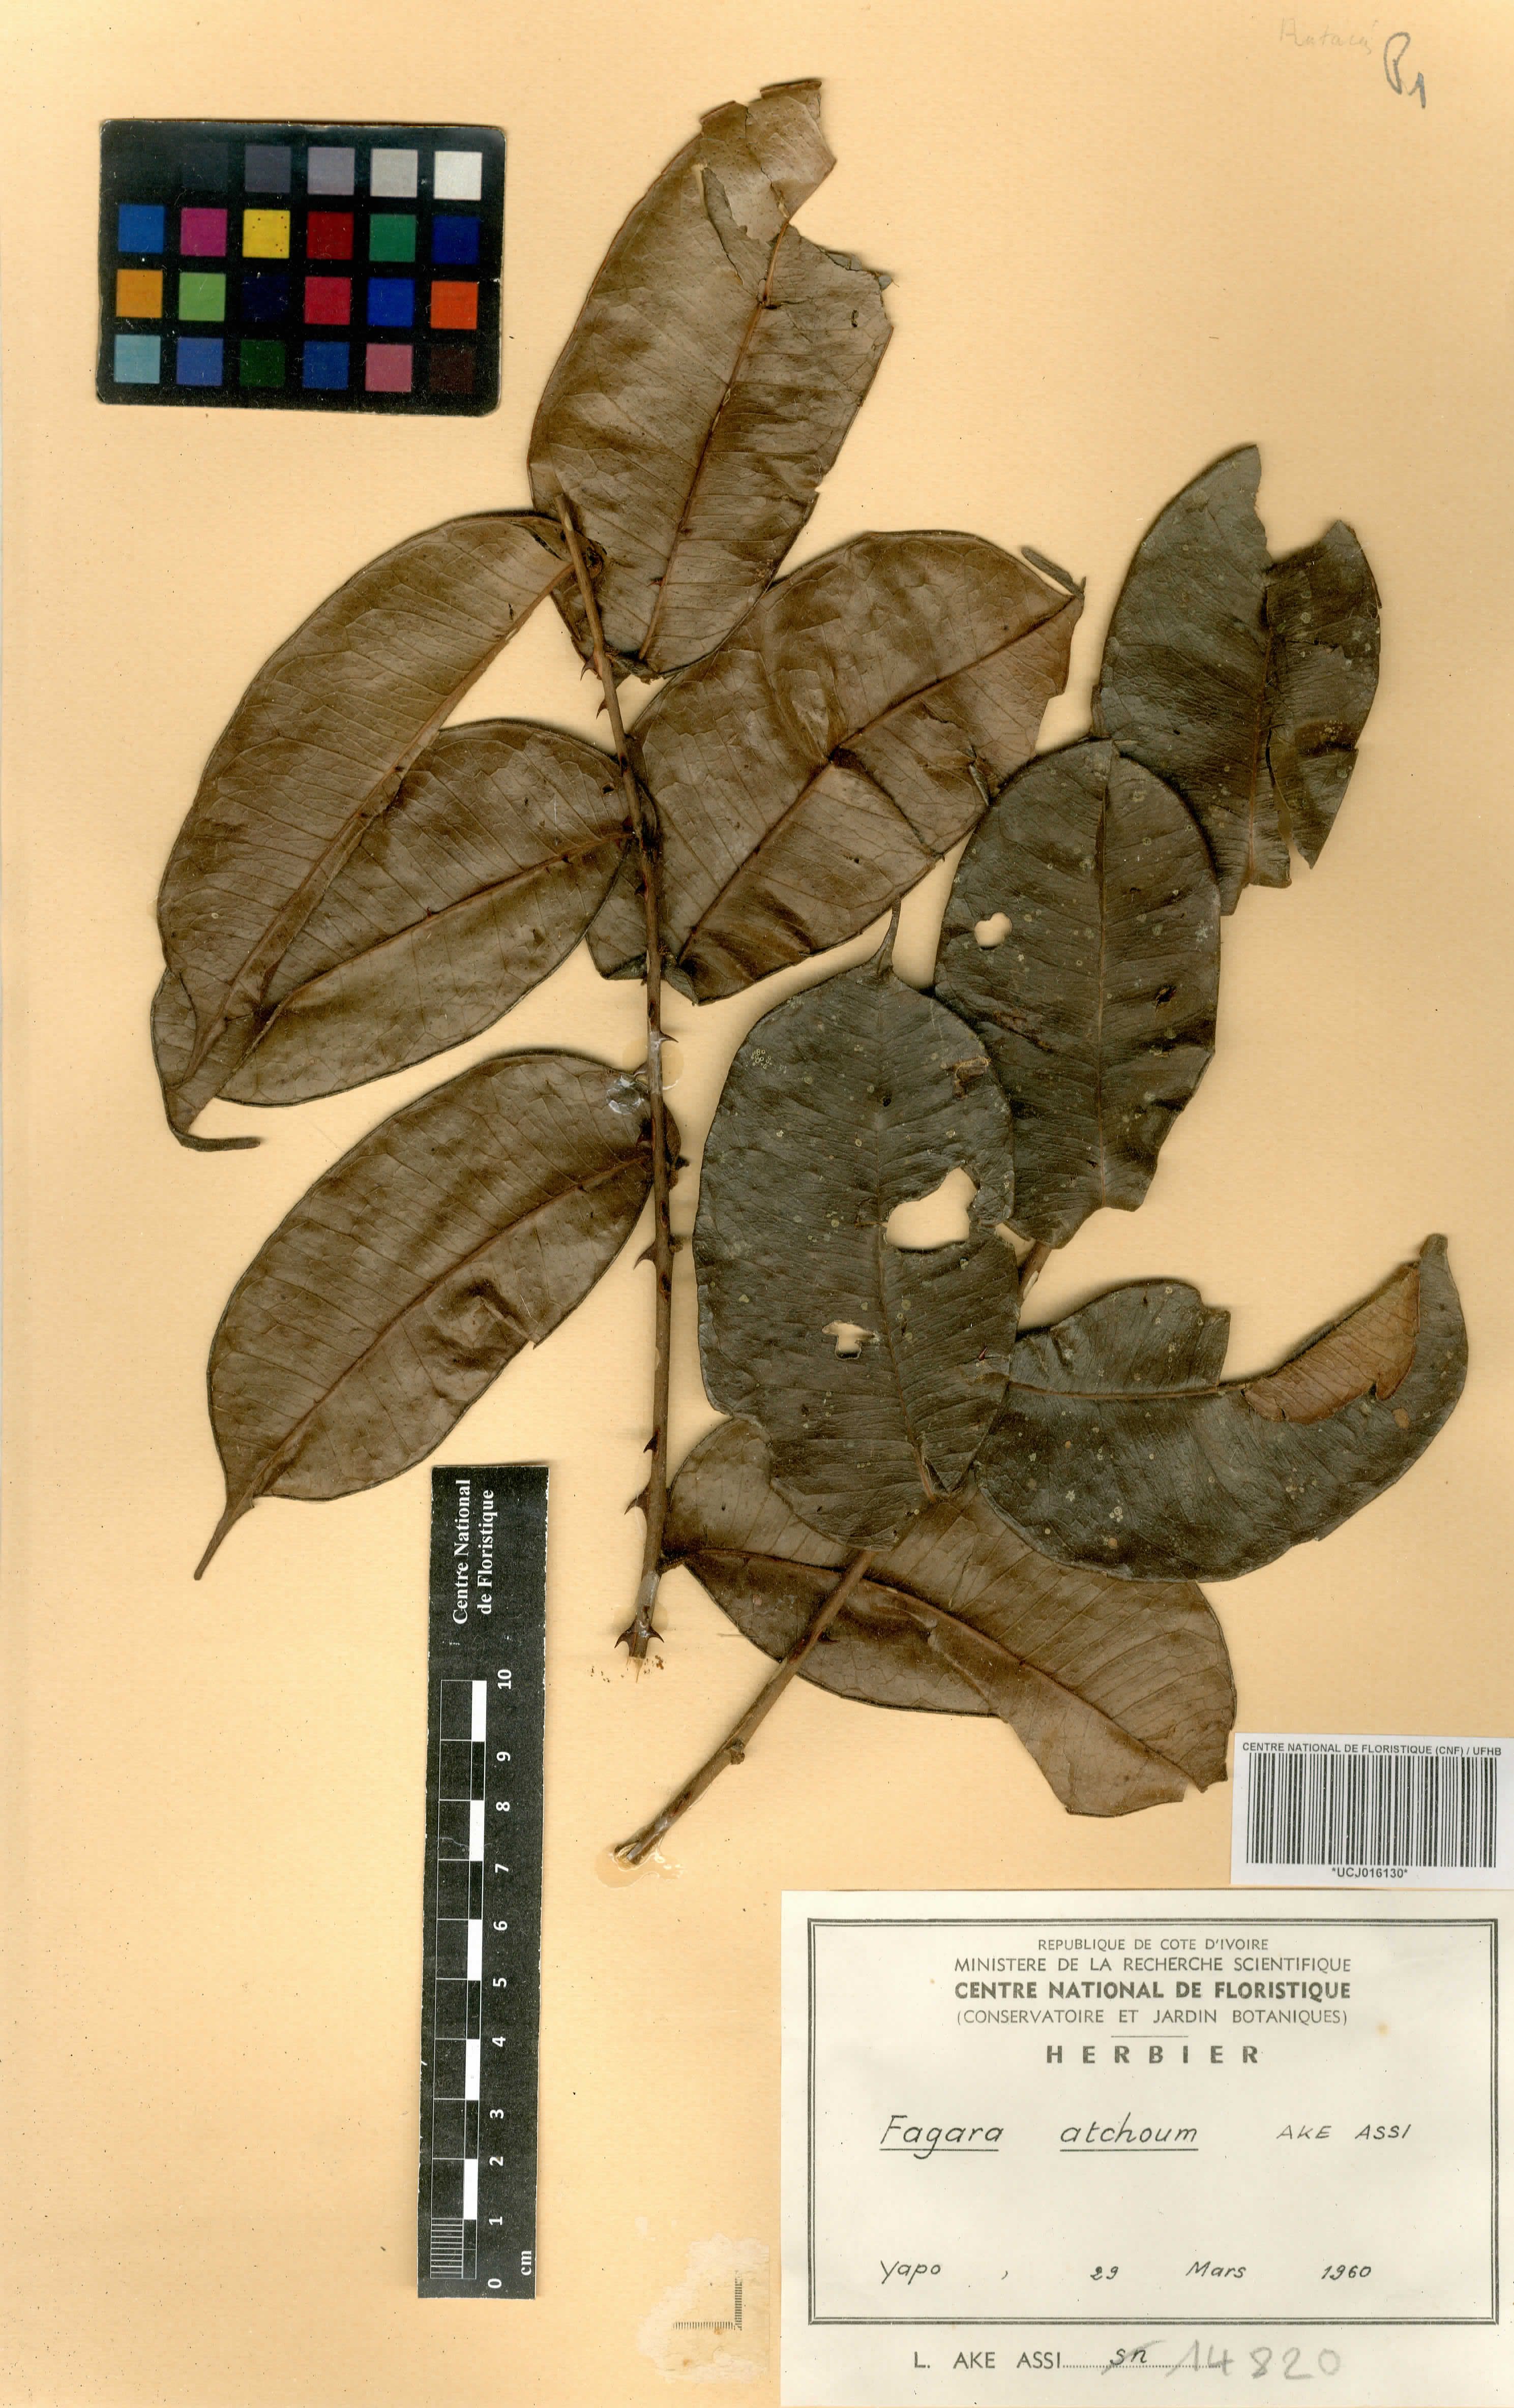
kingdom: Plantae
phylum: Tracheophyta
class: Magnoliopsida
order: Sapindales
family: Rutaceae
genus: Zanthoxylum
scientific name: Zanthoxylum atchoum
